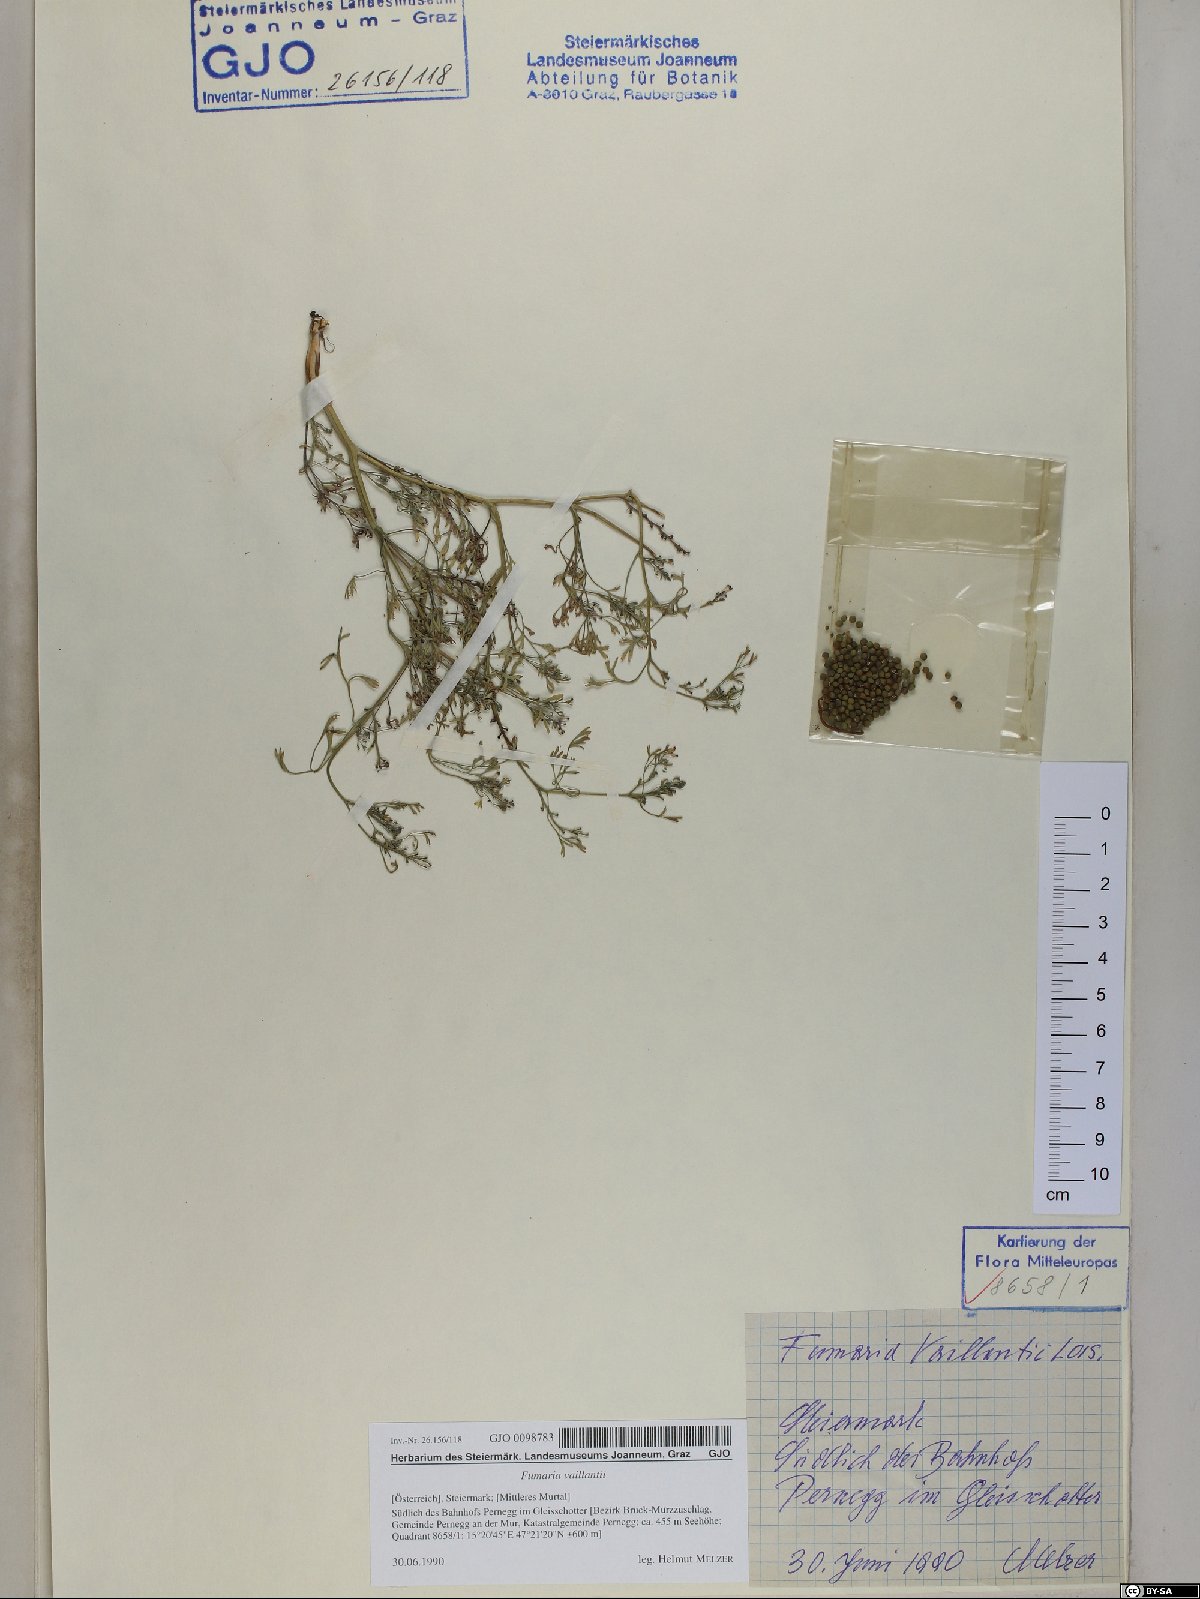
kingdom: Plantae
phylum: Tracheophyta
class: Magnoliopsida
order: Ranunculales
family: Papaveraceae
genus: Fumaria
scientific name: Fumaria vaillantii
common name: Few-flowered fumitory
